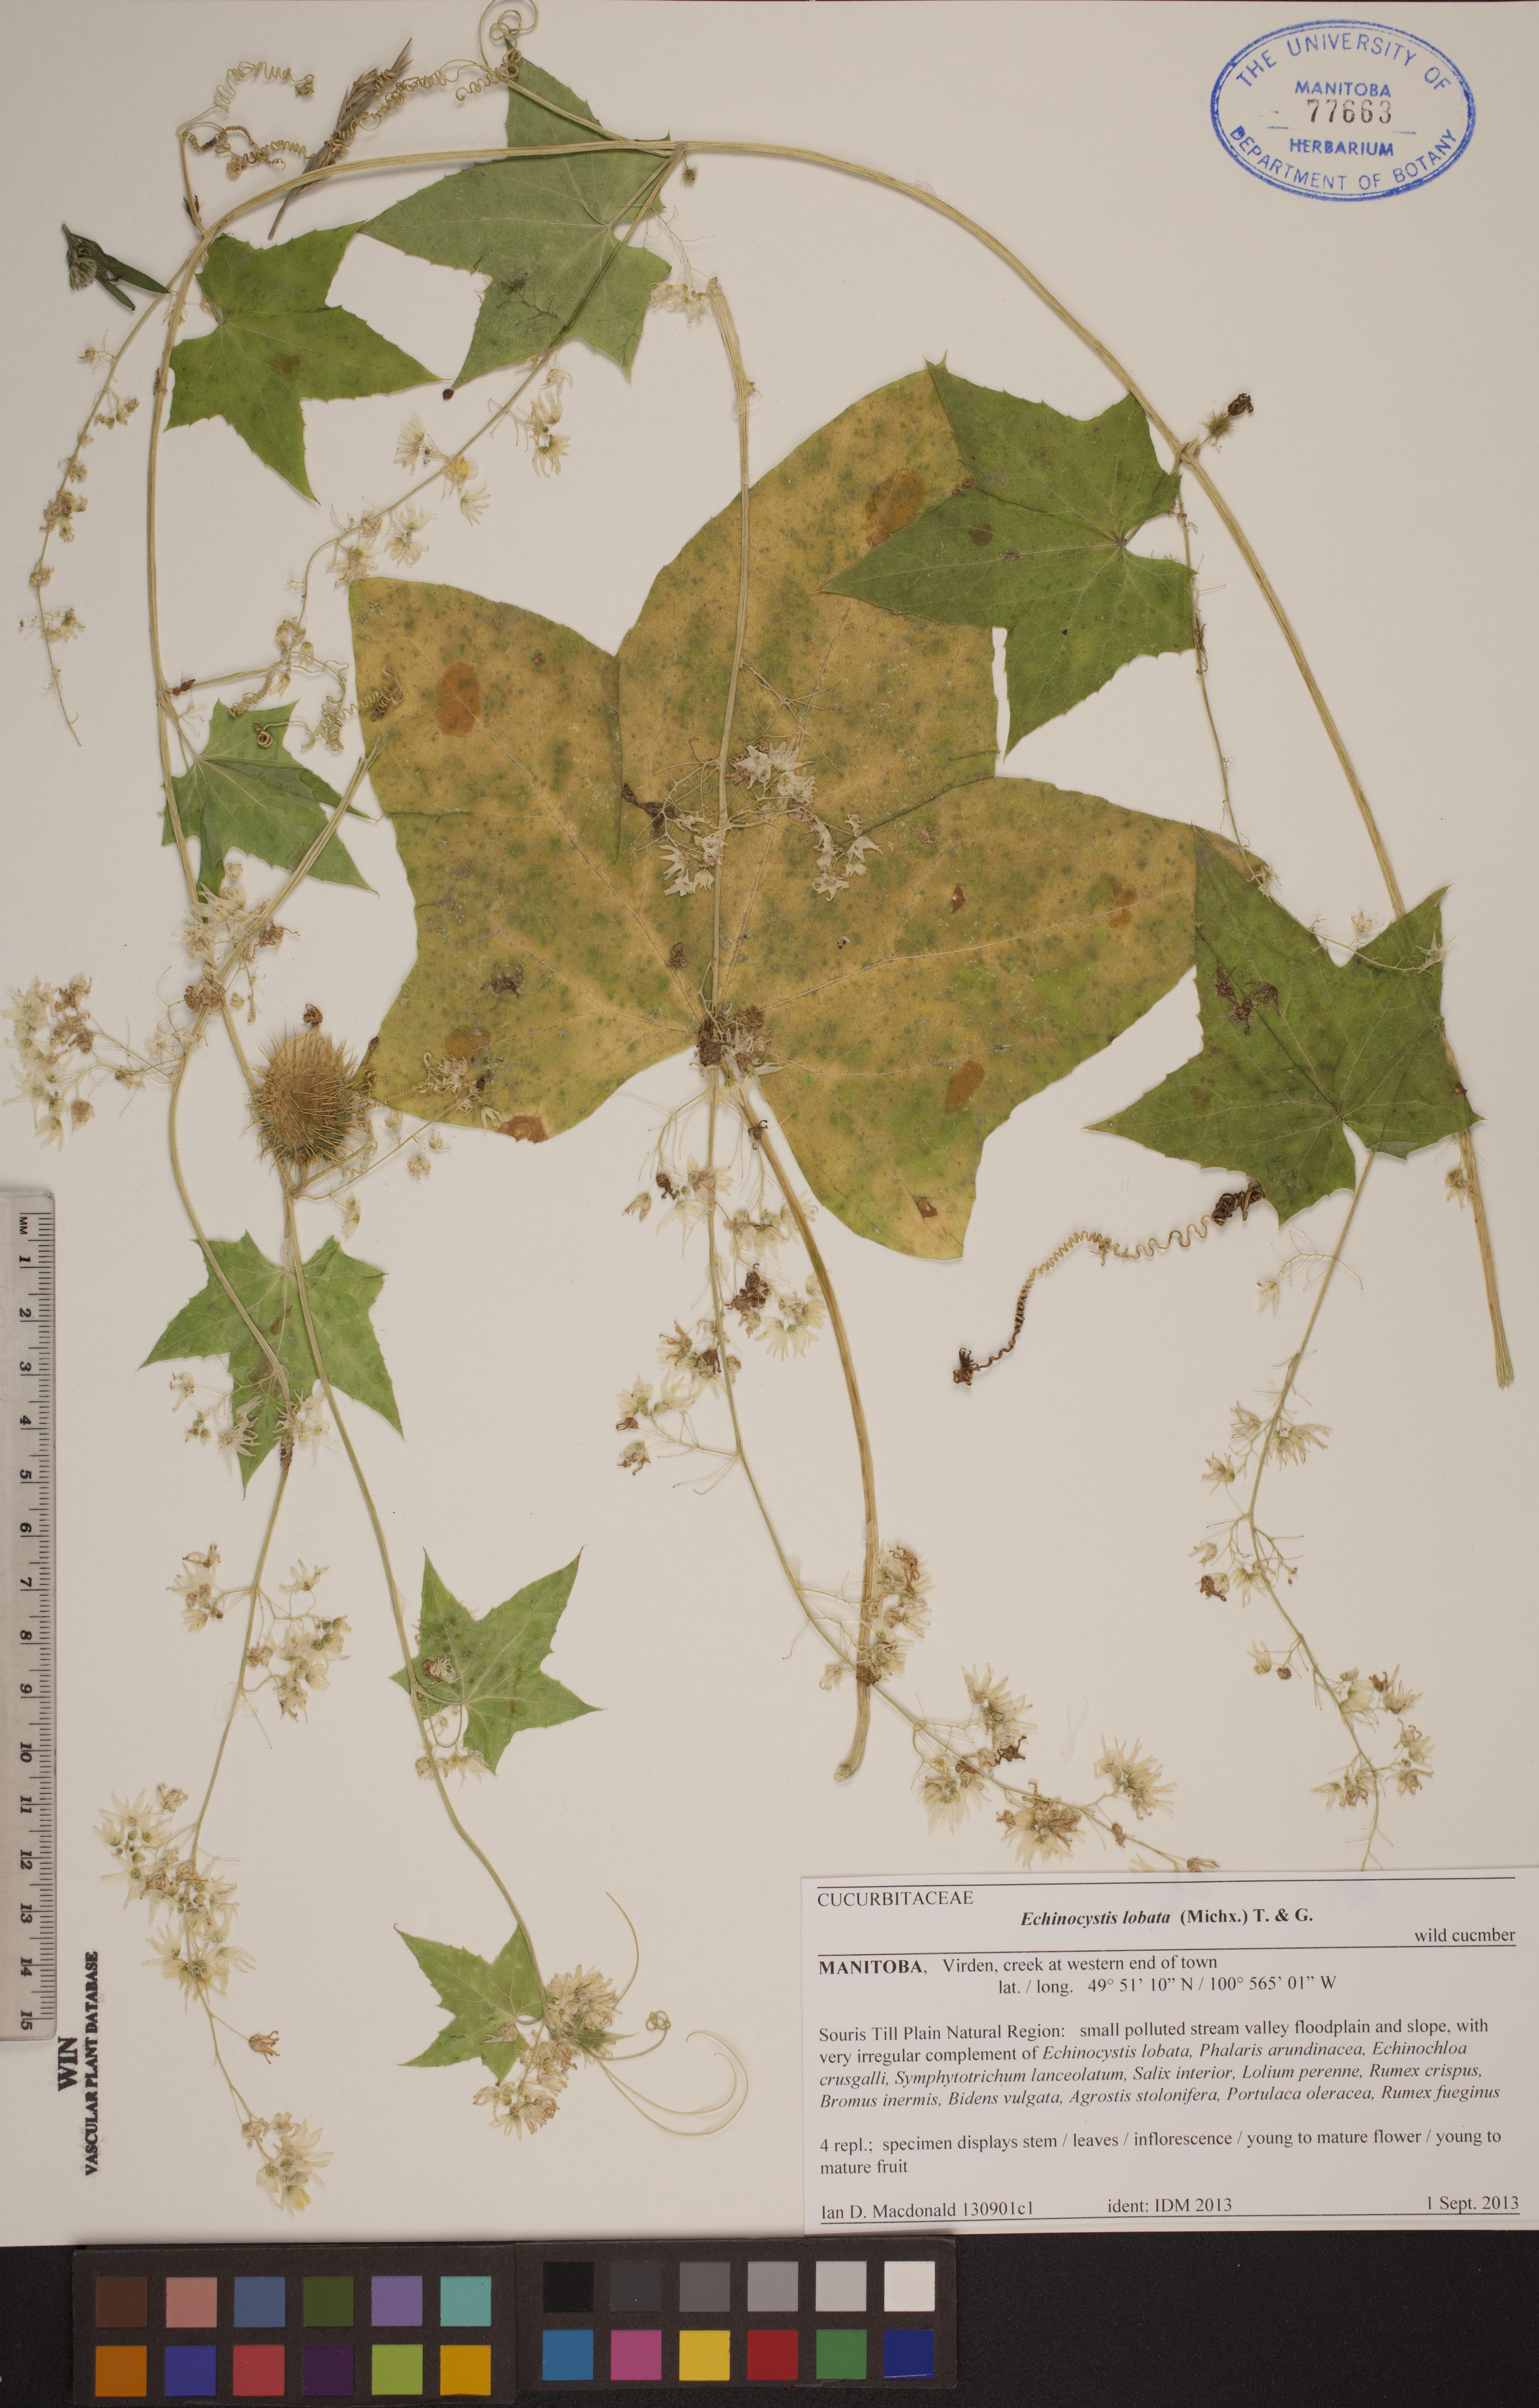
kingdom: Plantae
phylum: Tracheophyta
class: Magnoliopsida
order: Cucurbitales
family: Cucurbitaceae
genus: Echinocystis
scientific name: Echinocystis lobata
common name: Wild cucumber
